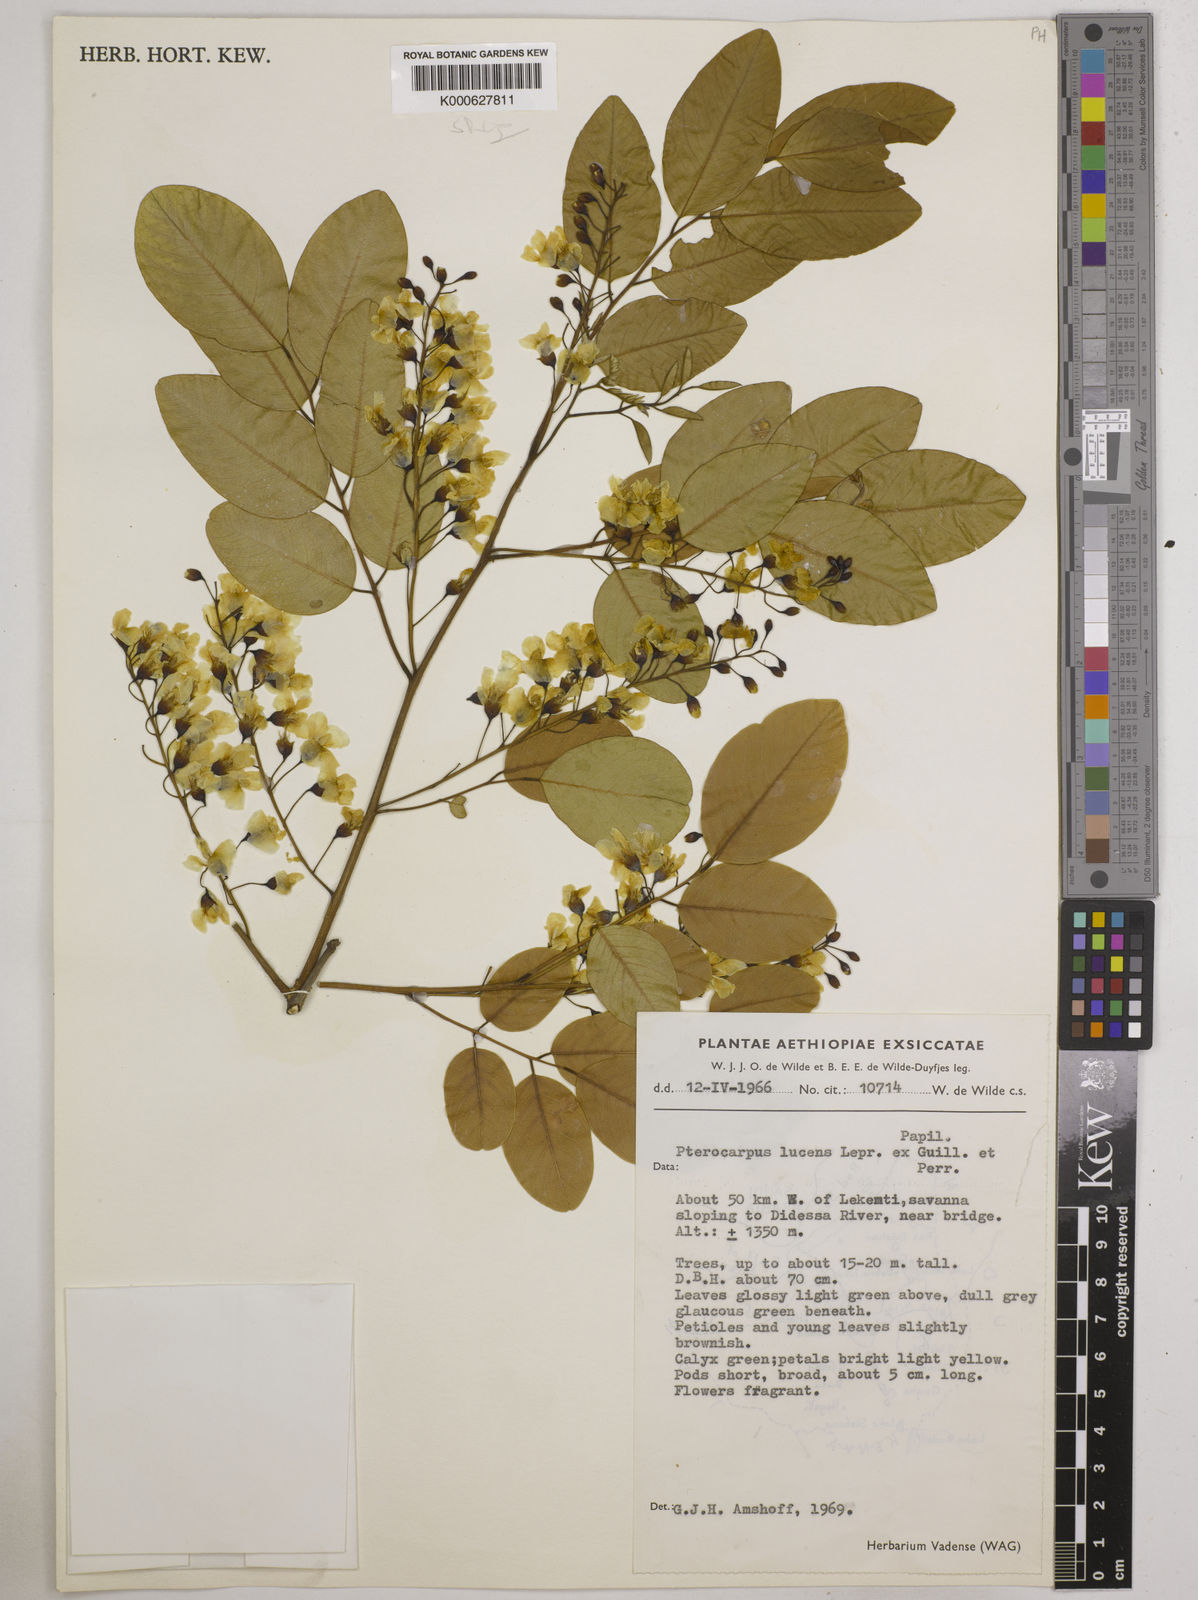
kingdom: Plantae
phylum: Tracheophyta
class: Magnoliopsida
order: Fabales
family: Fabaceae
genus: Pterocarpus
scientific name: Pterocarpus lucens
